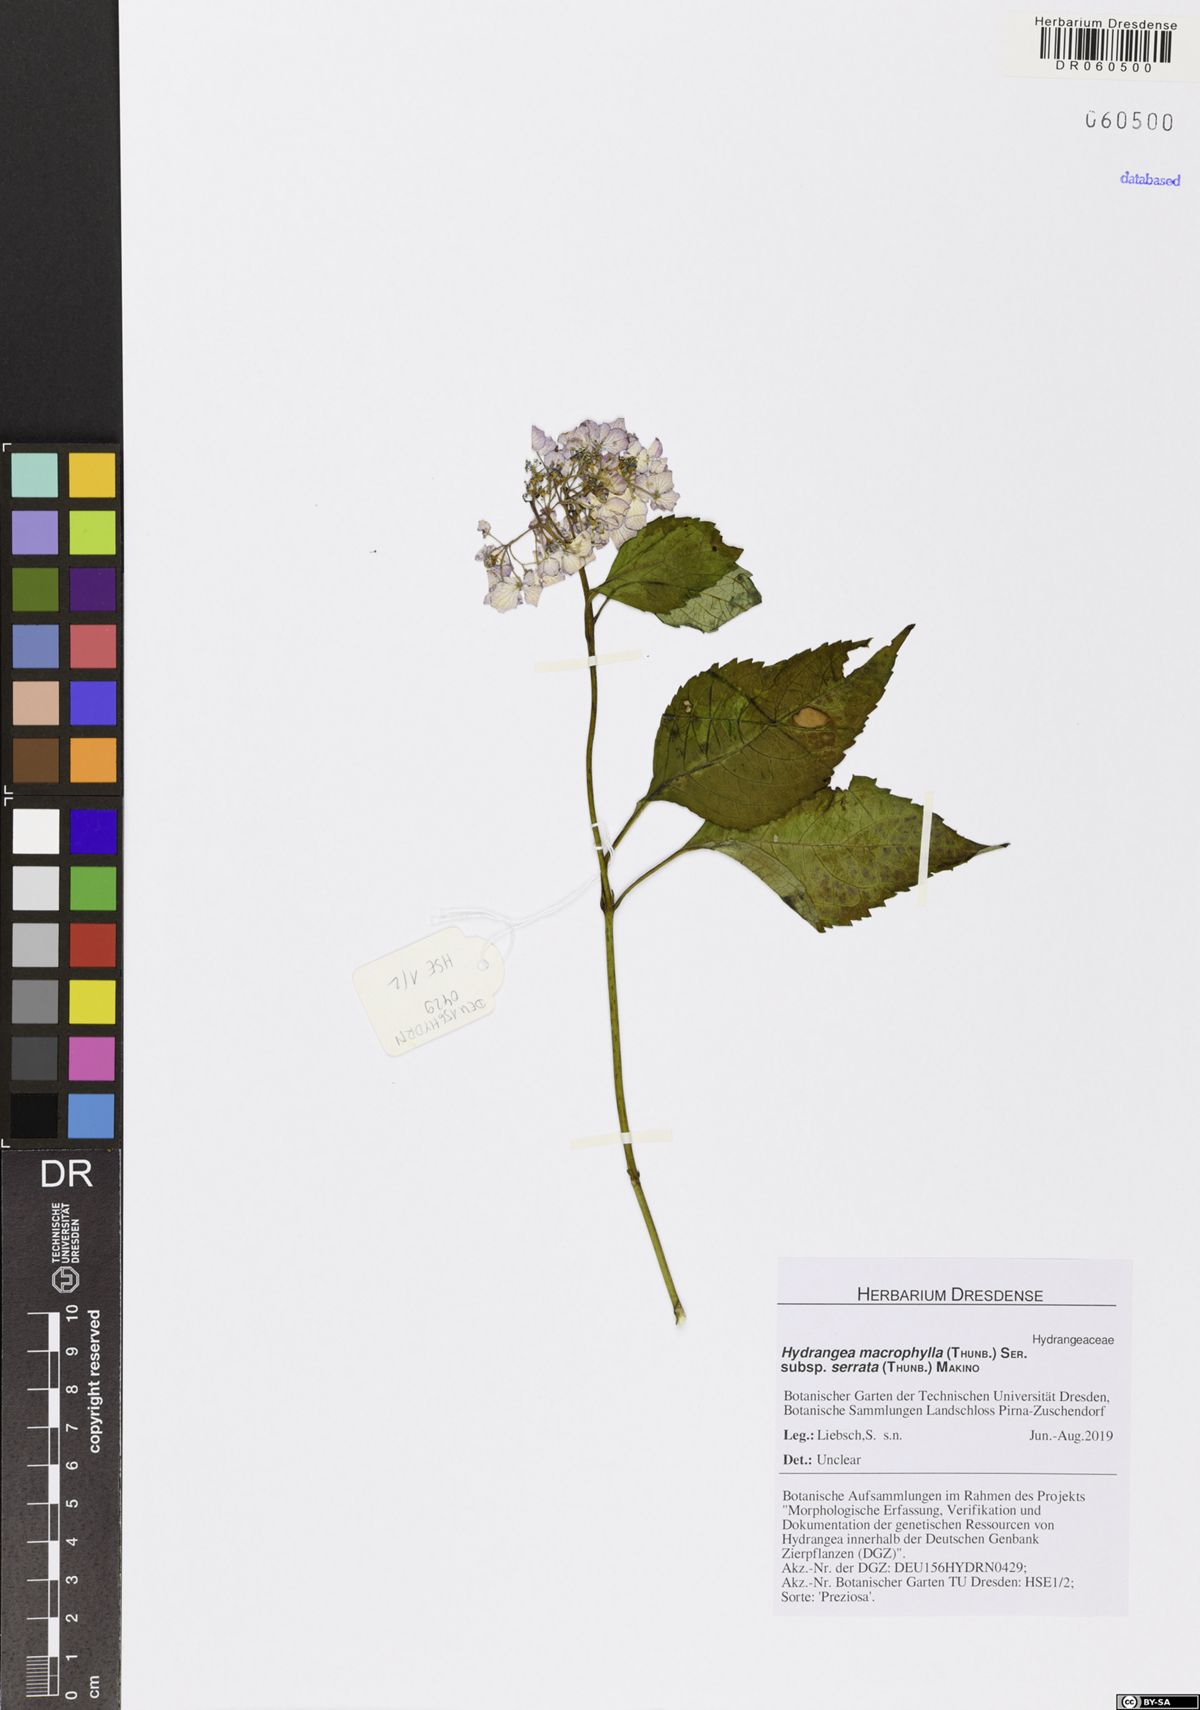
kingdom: Plantae
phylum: Tracheophyta
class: Magnoliopsida
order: Cornales
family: Hydrangeaceae
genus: Hydrangea
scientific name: Hydrangea serrata
